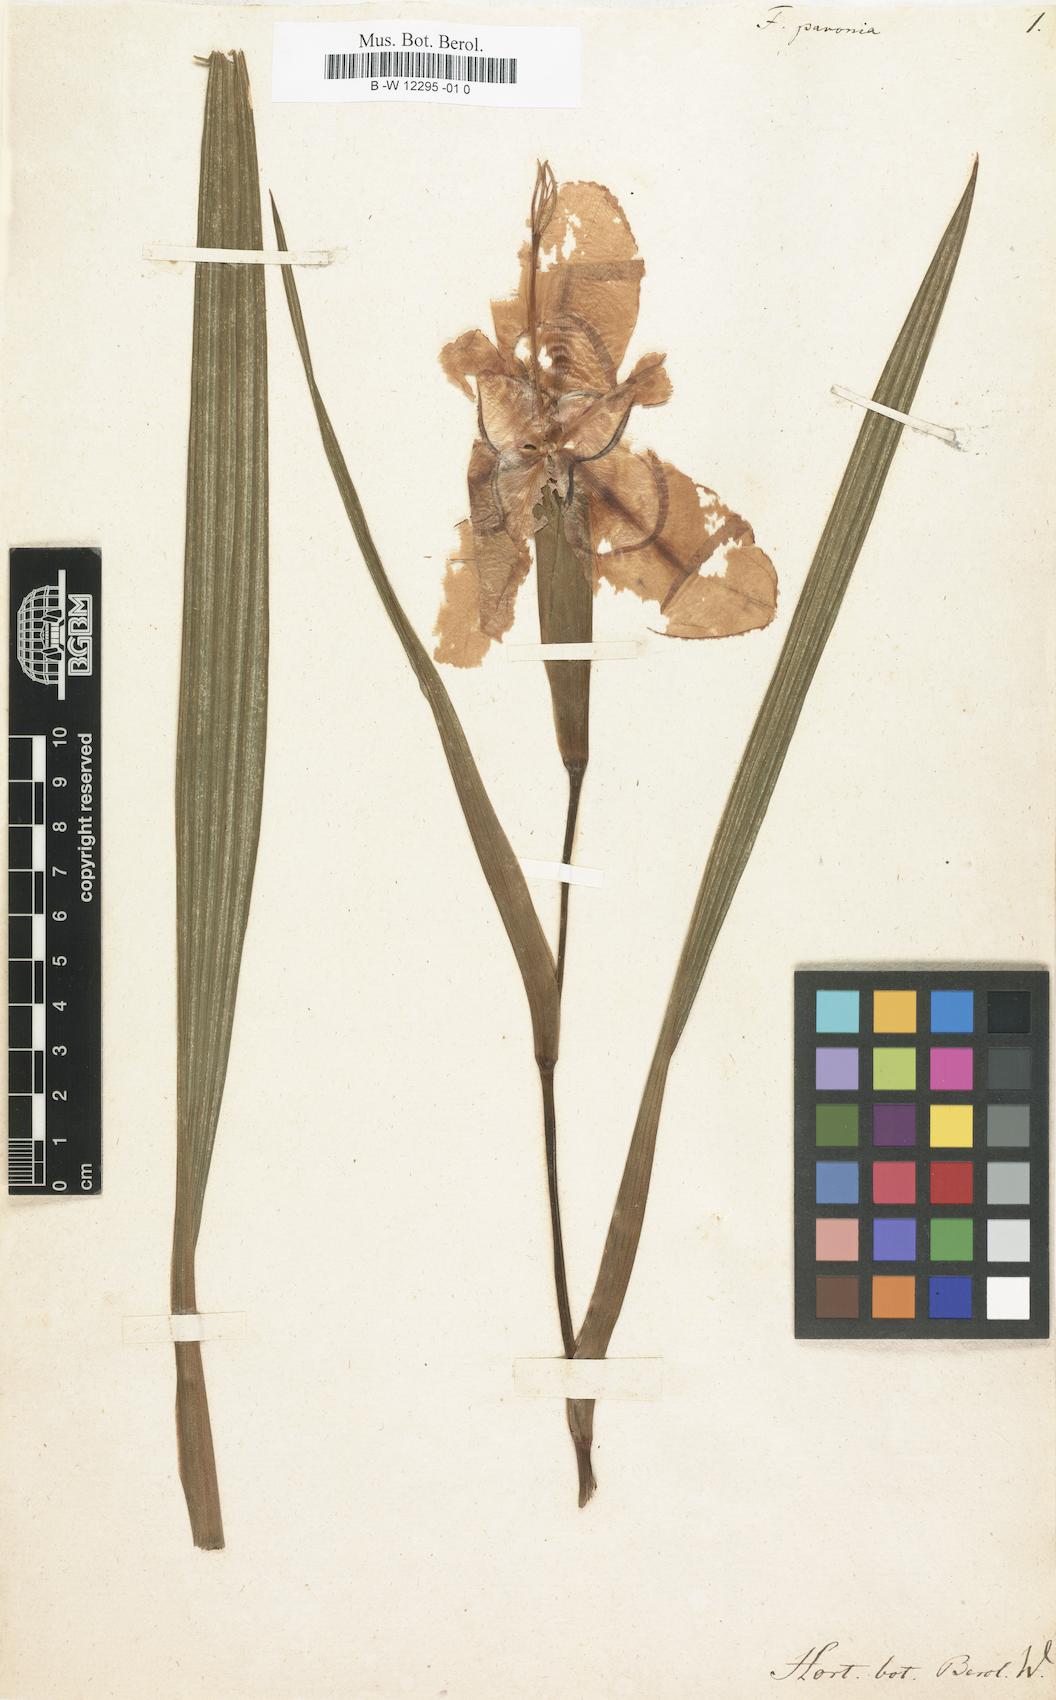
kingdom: Plantae
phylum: Tracheophyta
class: Liliopsida
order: Asparagales
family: Iridaceae
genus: Tigridia
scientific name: Tigridia pavonia
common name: Peacock-flower
